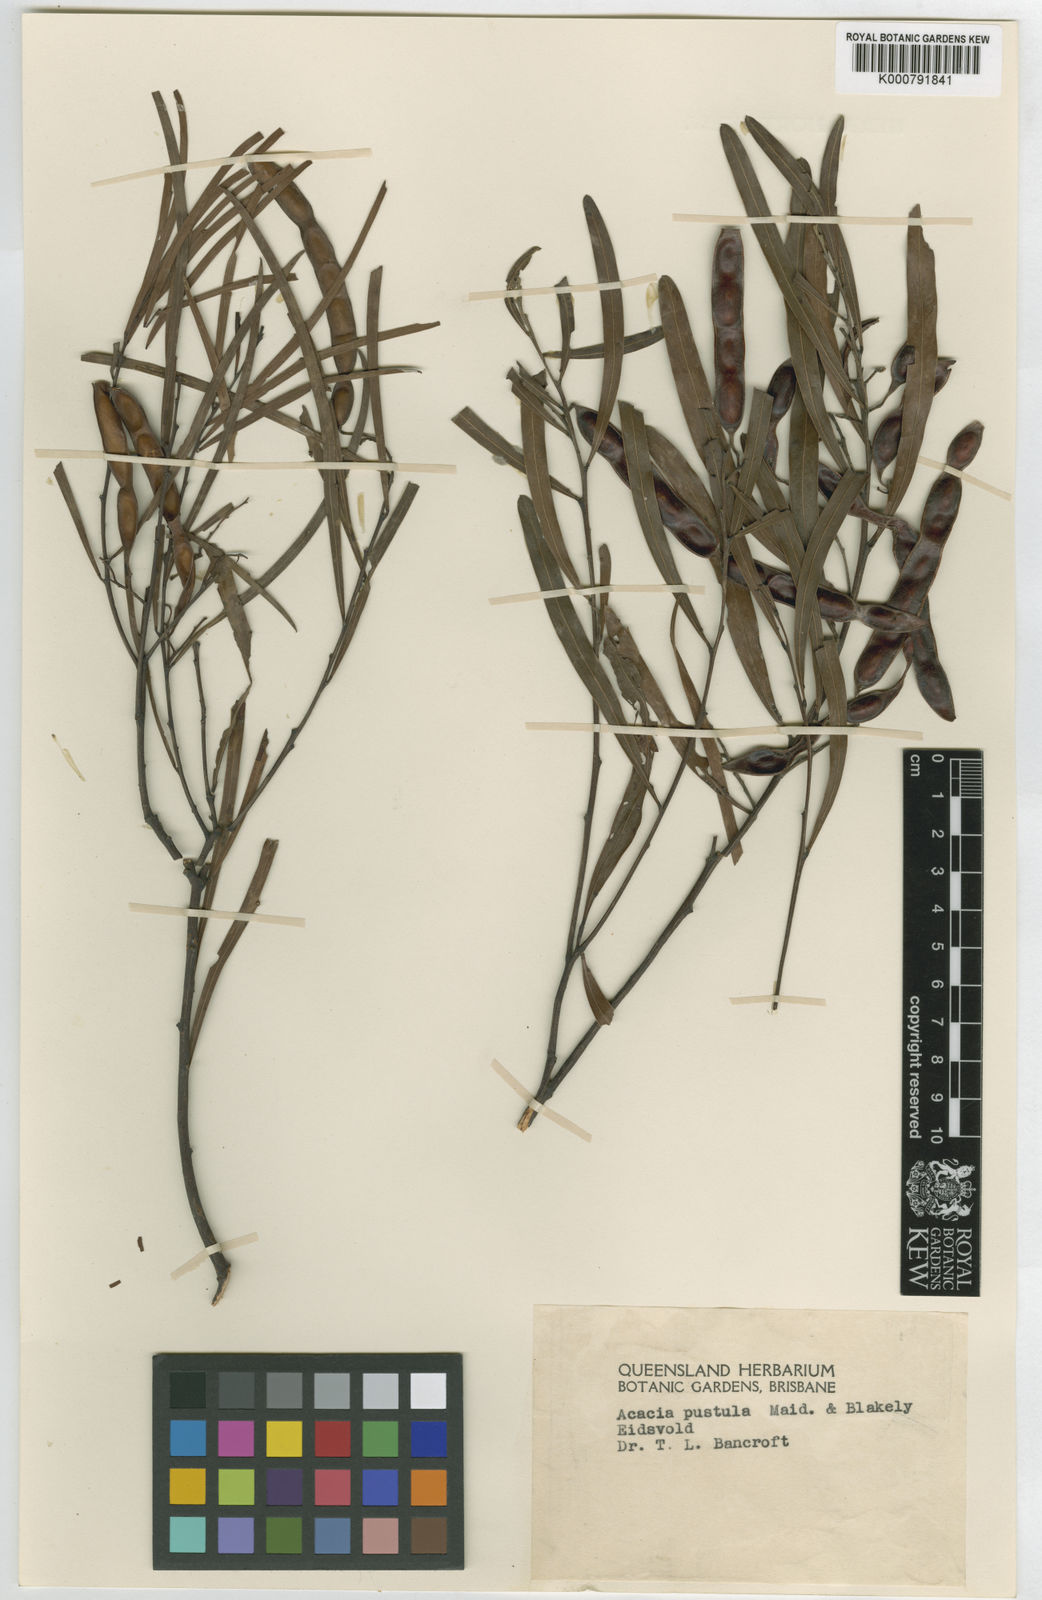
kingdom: Plantae
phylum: Tracheophyta
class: Magnoliopsida
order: Fabales
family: Fabaceae
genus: Acacia
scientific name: Acacia pustula
